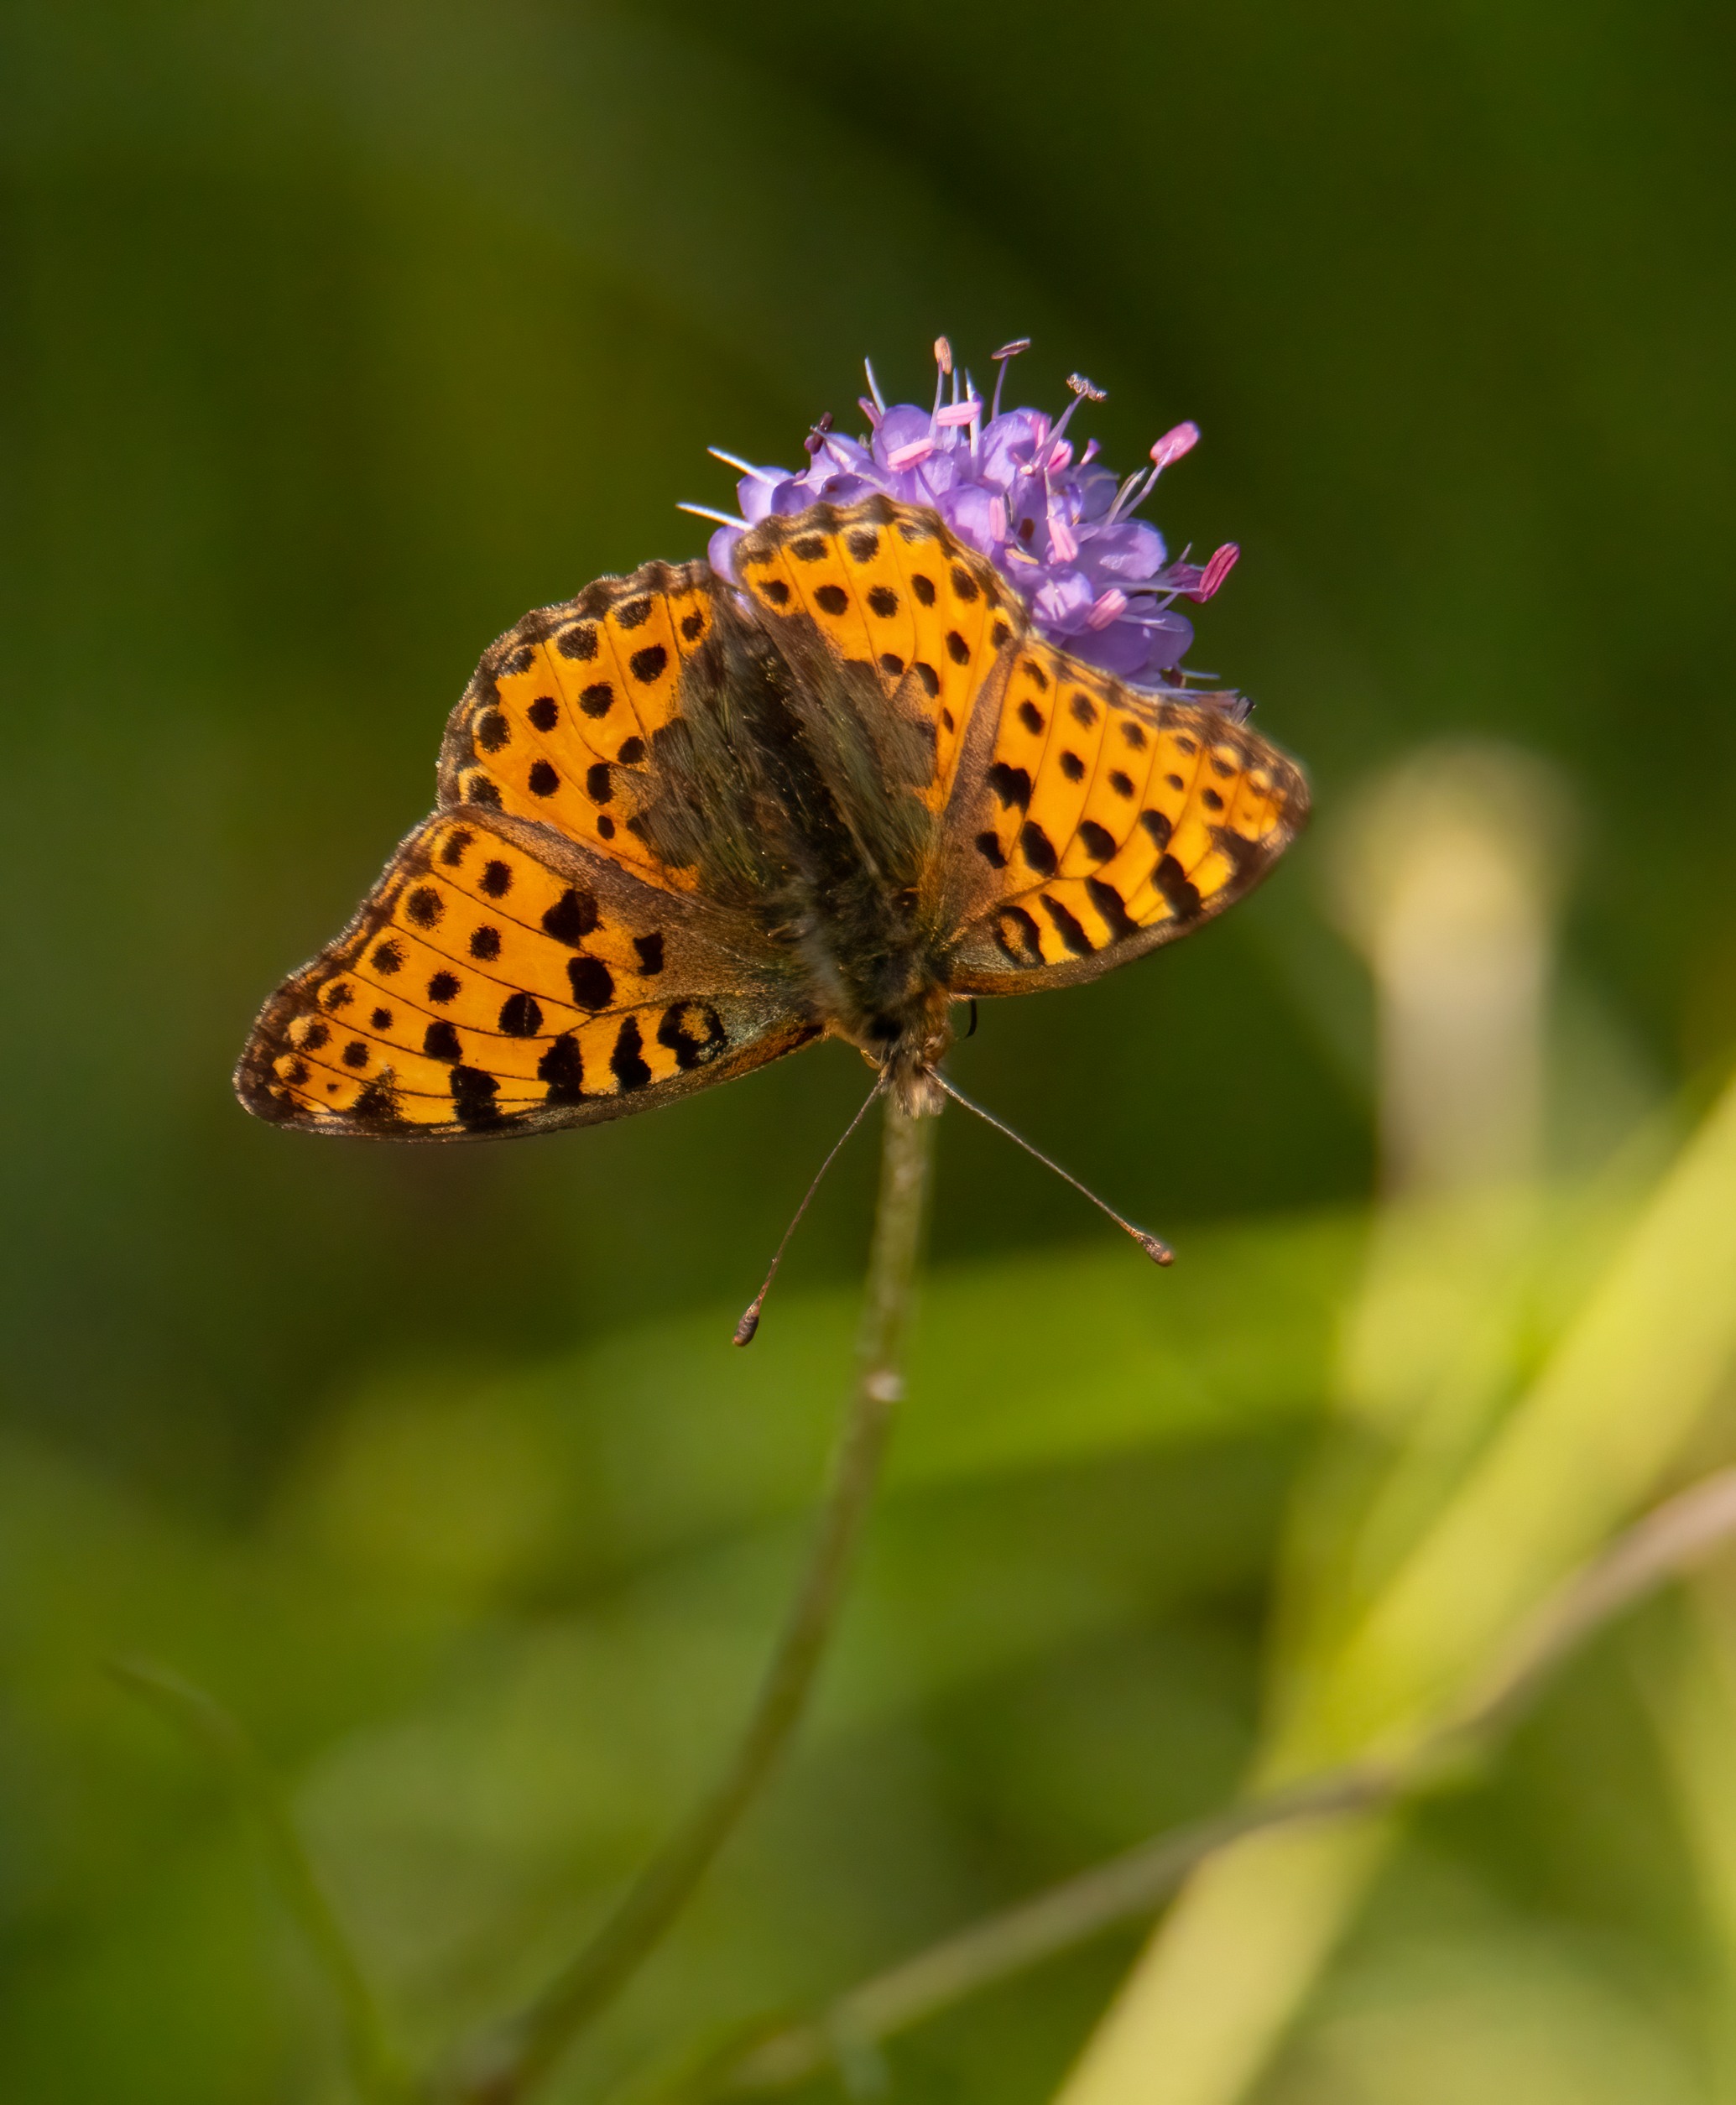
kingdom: Animalia
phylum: Arthropoda
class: Insecta
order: Lepidoptera
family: Nymphalidae
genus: Issoria
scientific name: Issoria lathonia
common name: Storplettet perlemorsommerfugl
